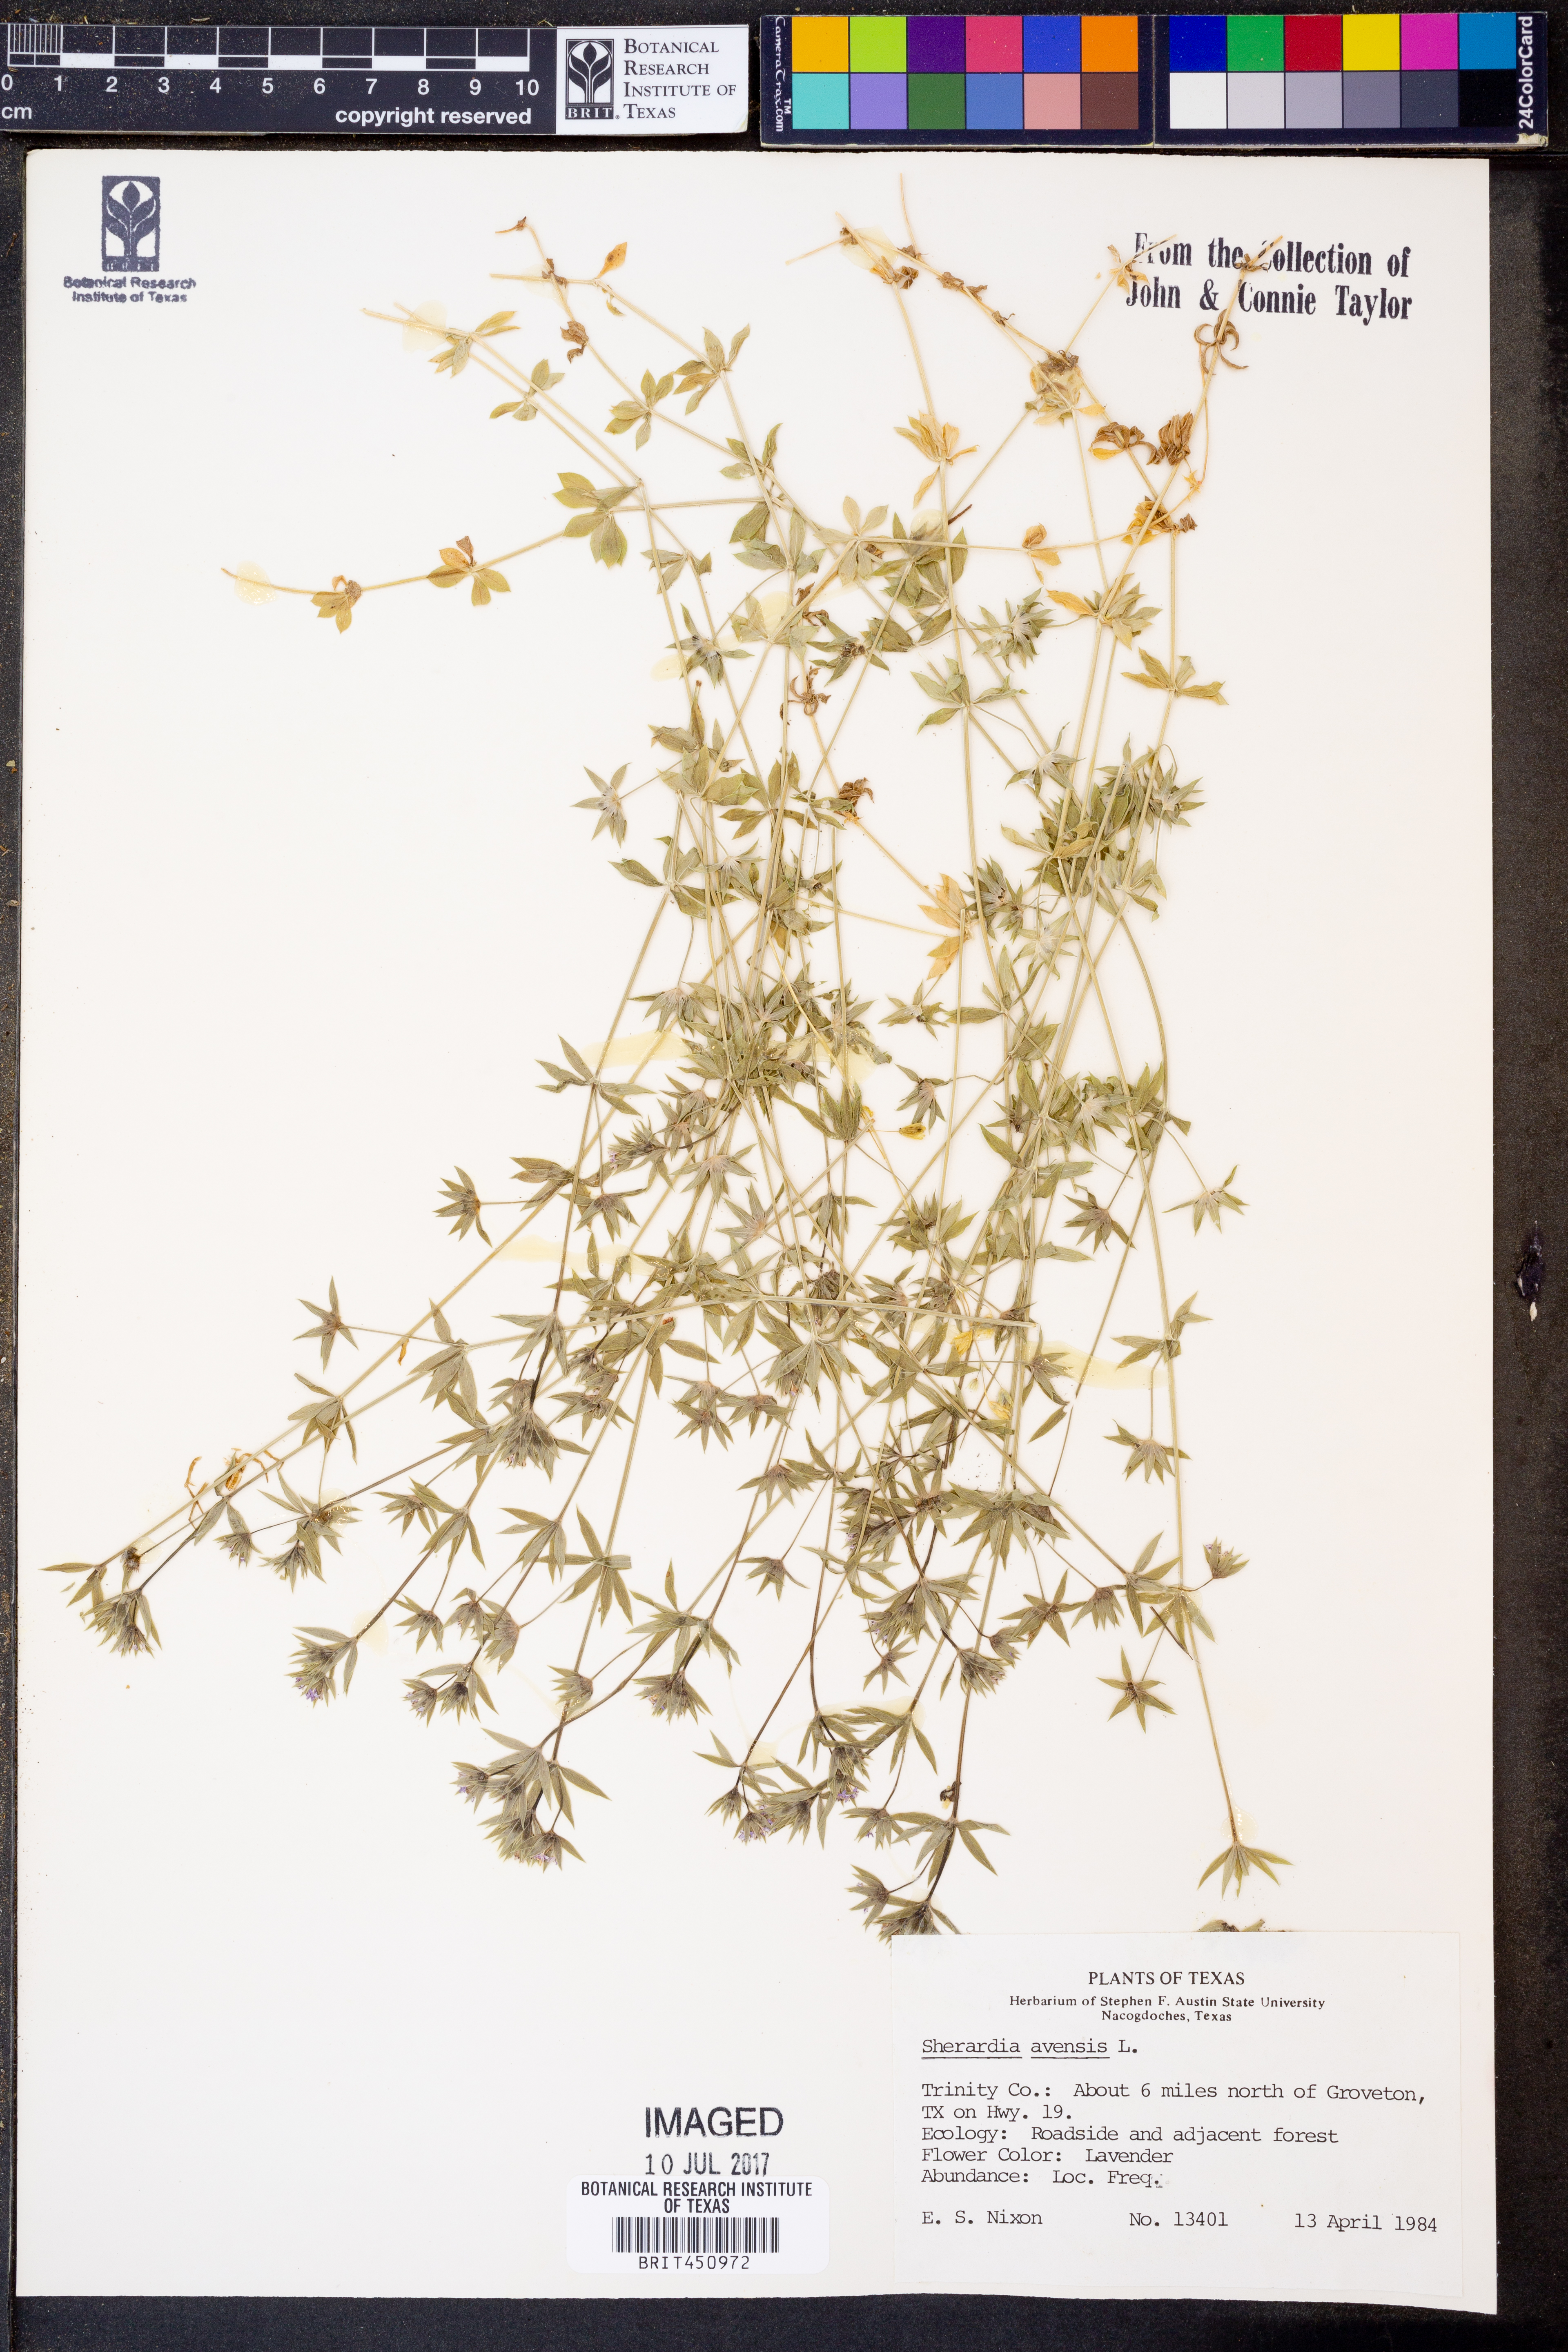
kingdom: Plantae
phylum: Tracheophyta
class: Magnoliopsida
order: Gentianales
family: Rubiaceae
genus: Sherardia
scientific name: Sherardia arvensis
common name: Field madder
